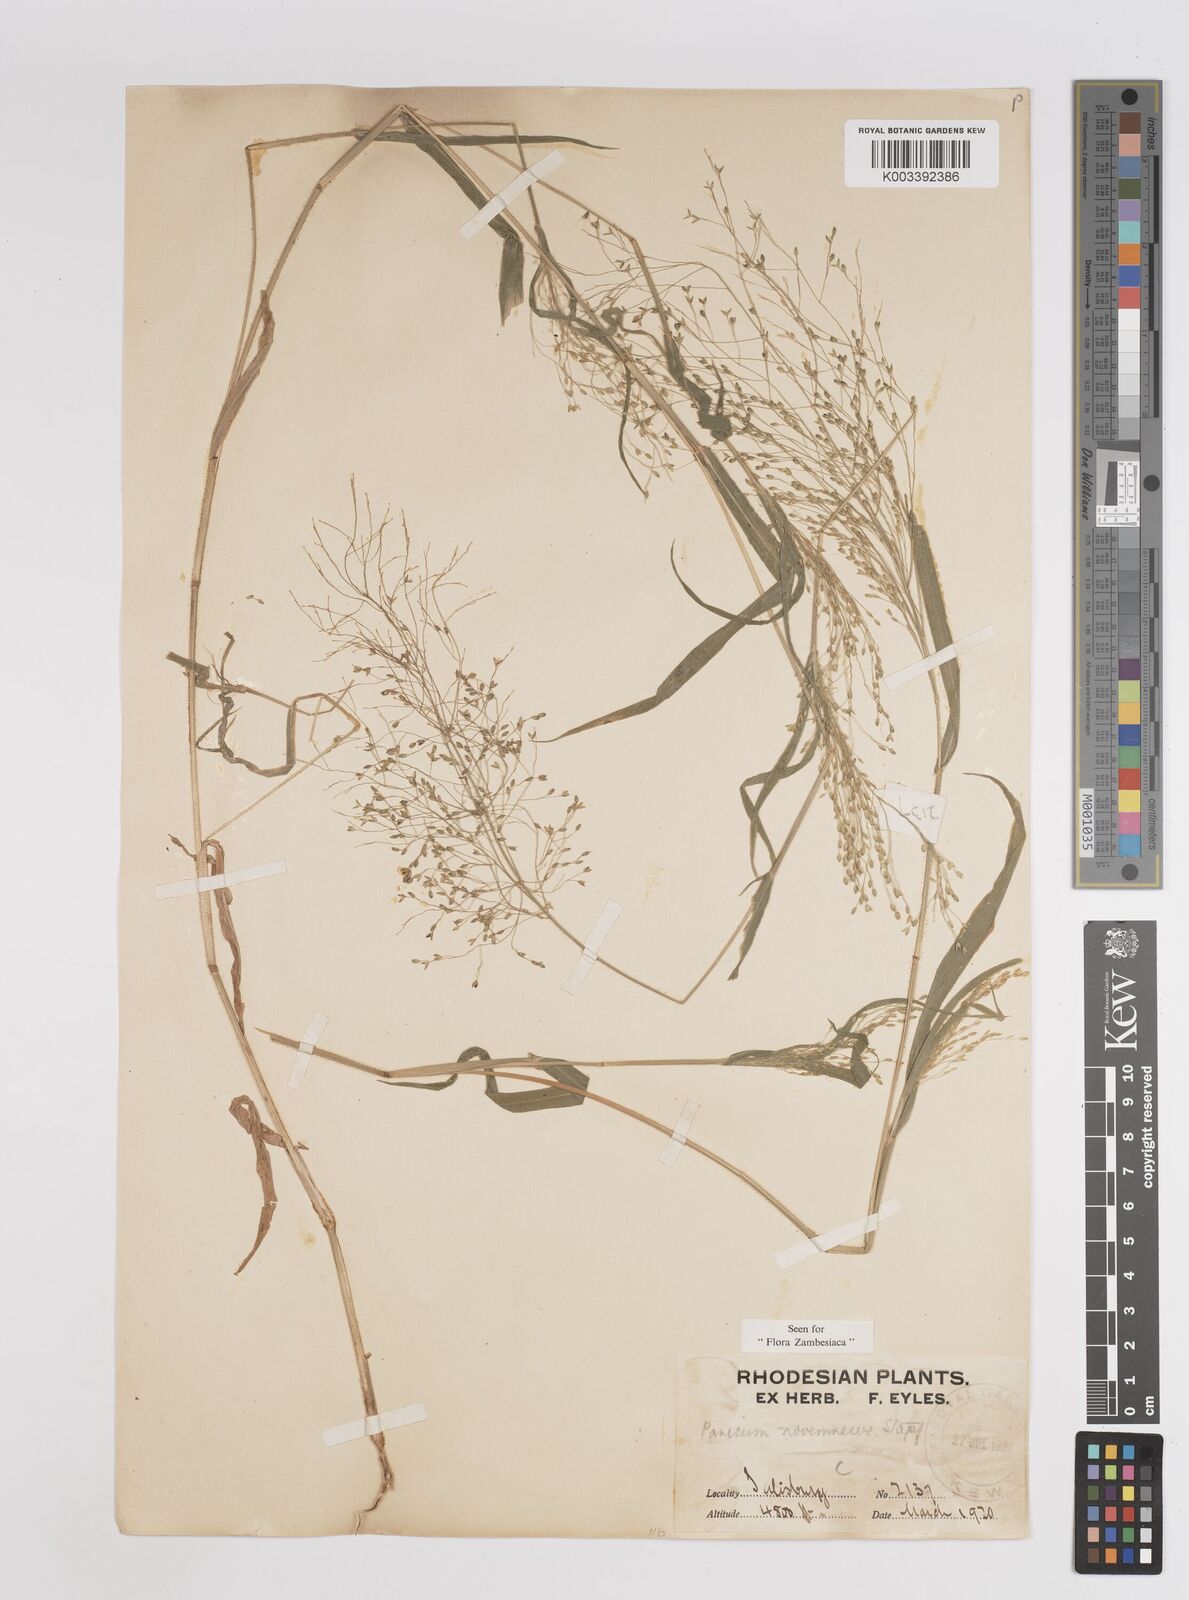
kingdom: Plantae
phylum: Tracheophyta
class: Liliopsida
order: Poales
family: Poaceae
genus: Panicum
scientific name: Panicum novemnerve
